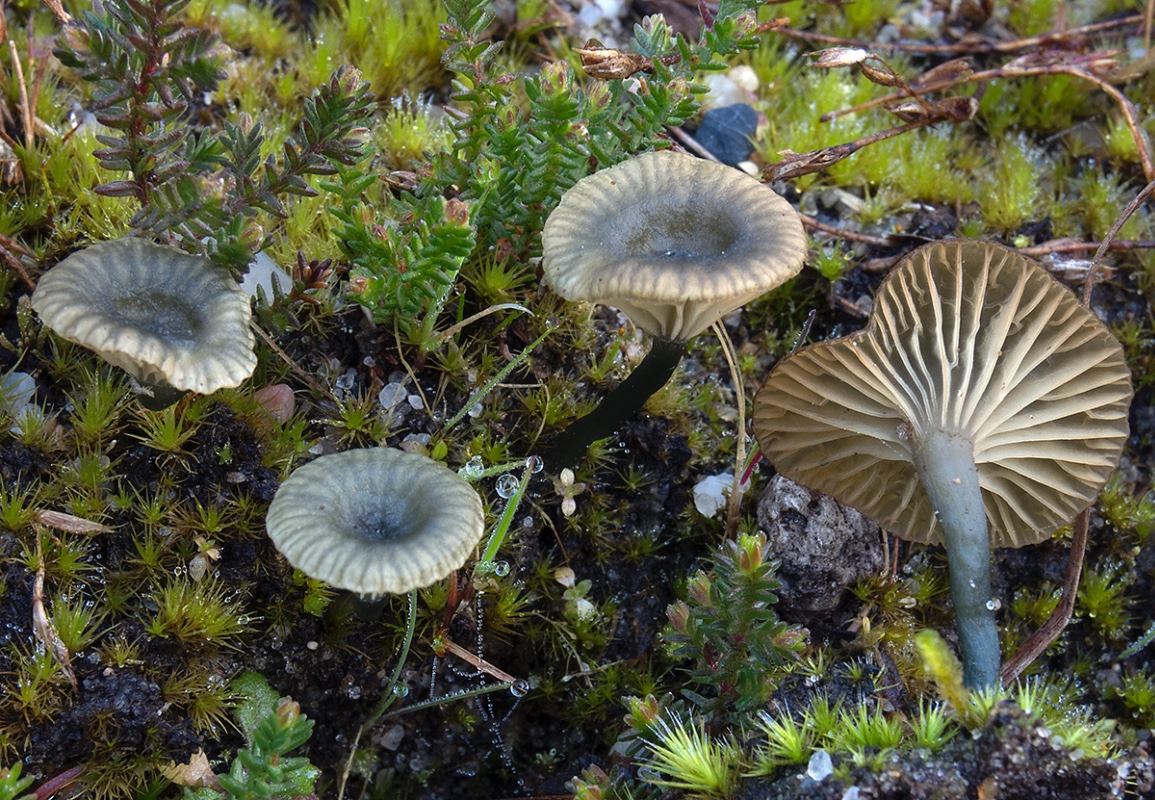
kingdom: Fungi
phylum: Basidiomycota
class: Agaricomycetes
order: Agaricales
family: Hygrophoraceae
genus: Arrhenia
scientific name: Arrhenia chlorocyanea
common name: blågrøn fontænehat
